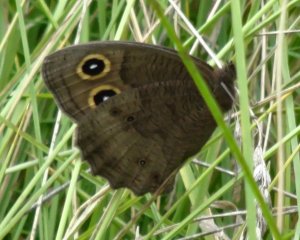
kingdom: Animalia
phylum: Arthropoda
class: Insecta
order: Lepidoptera
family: Nymphalidae
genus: Cercyonis
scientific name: Cercyonis pegala
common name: Common Wood-Nymph
